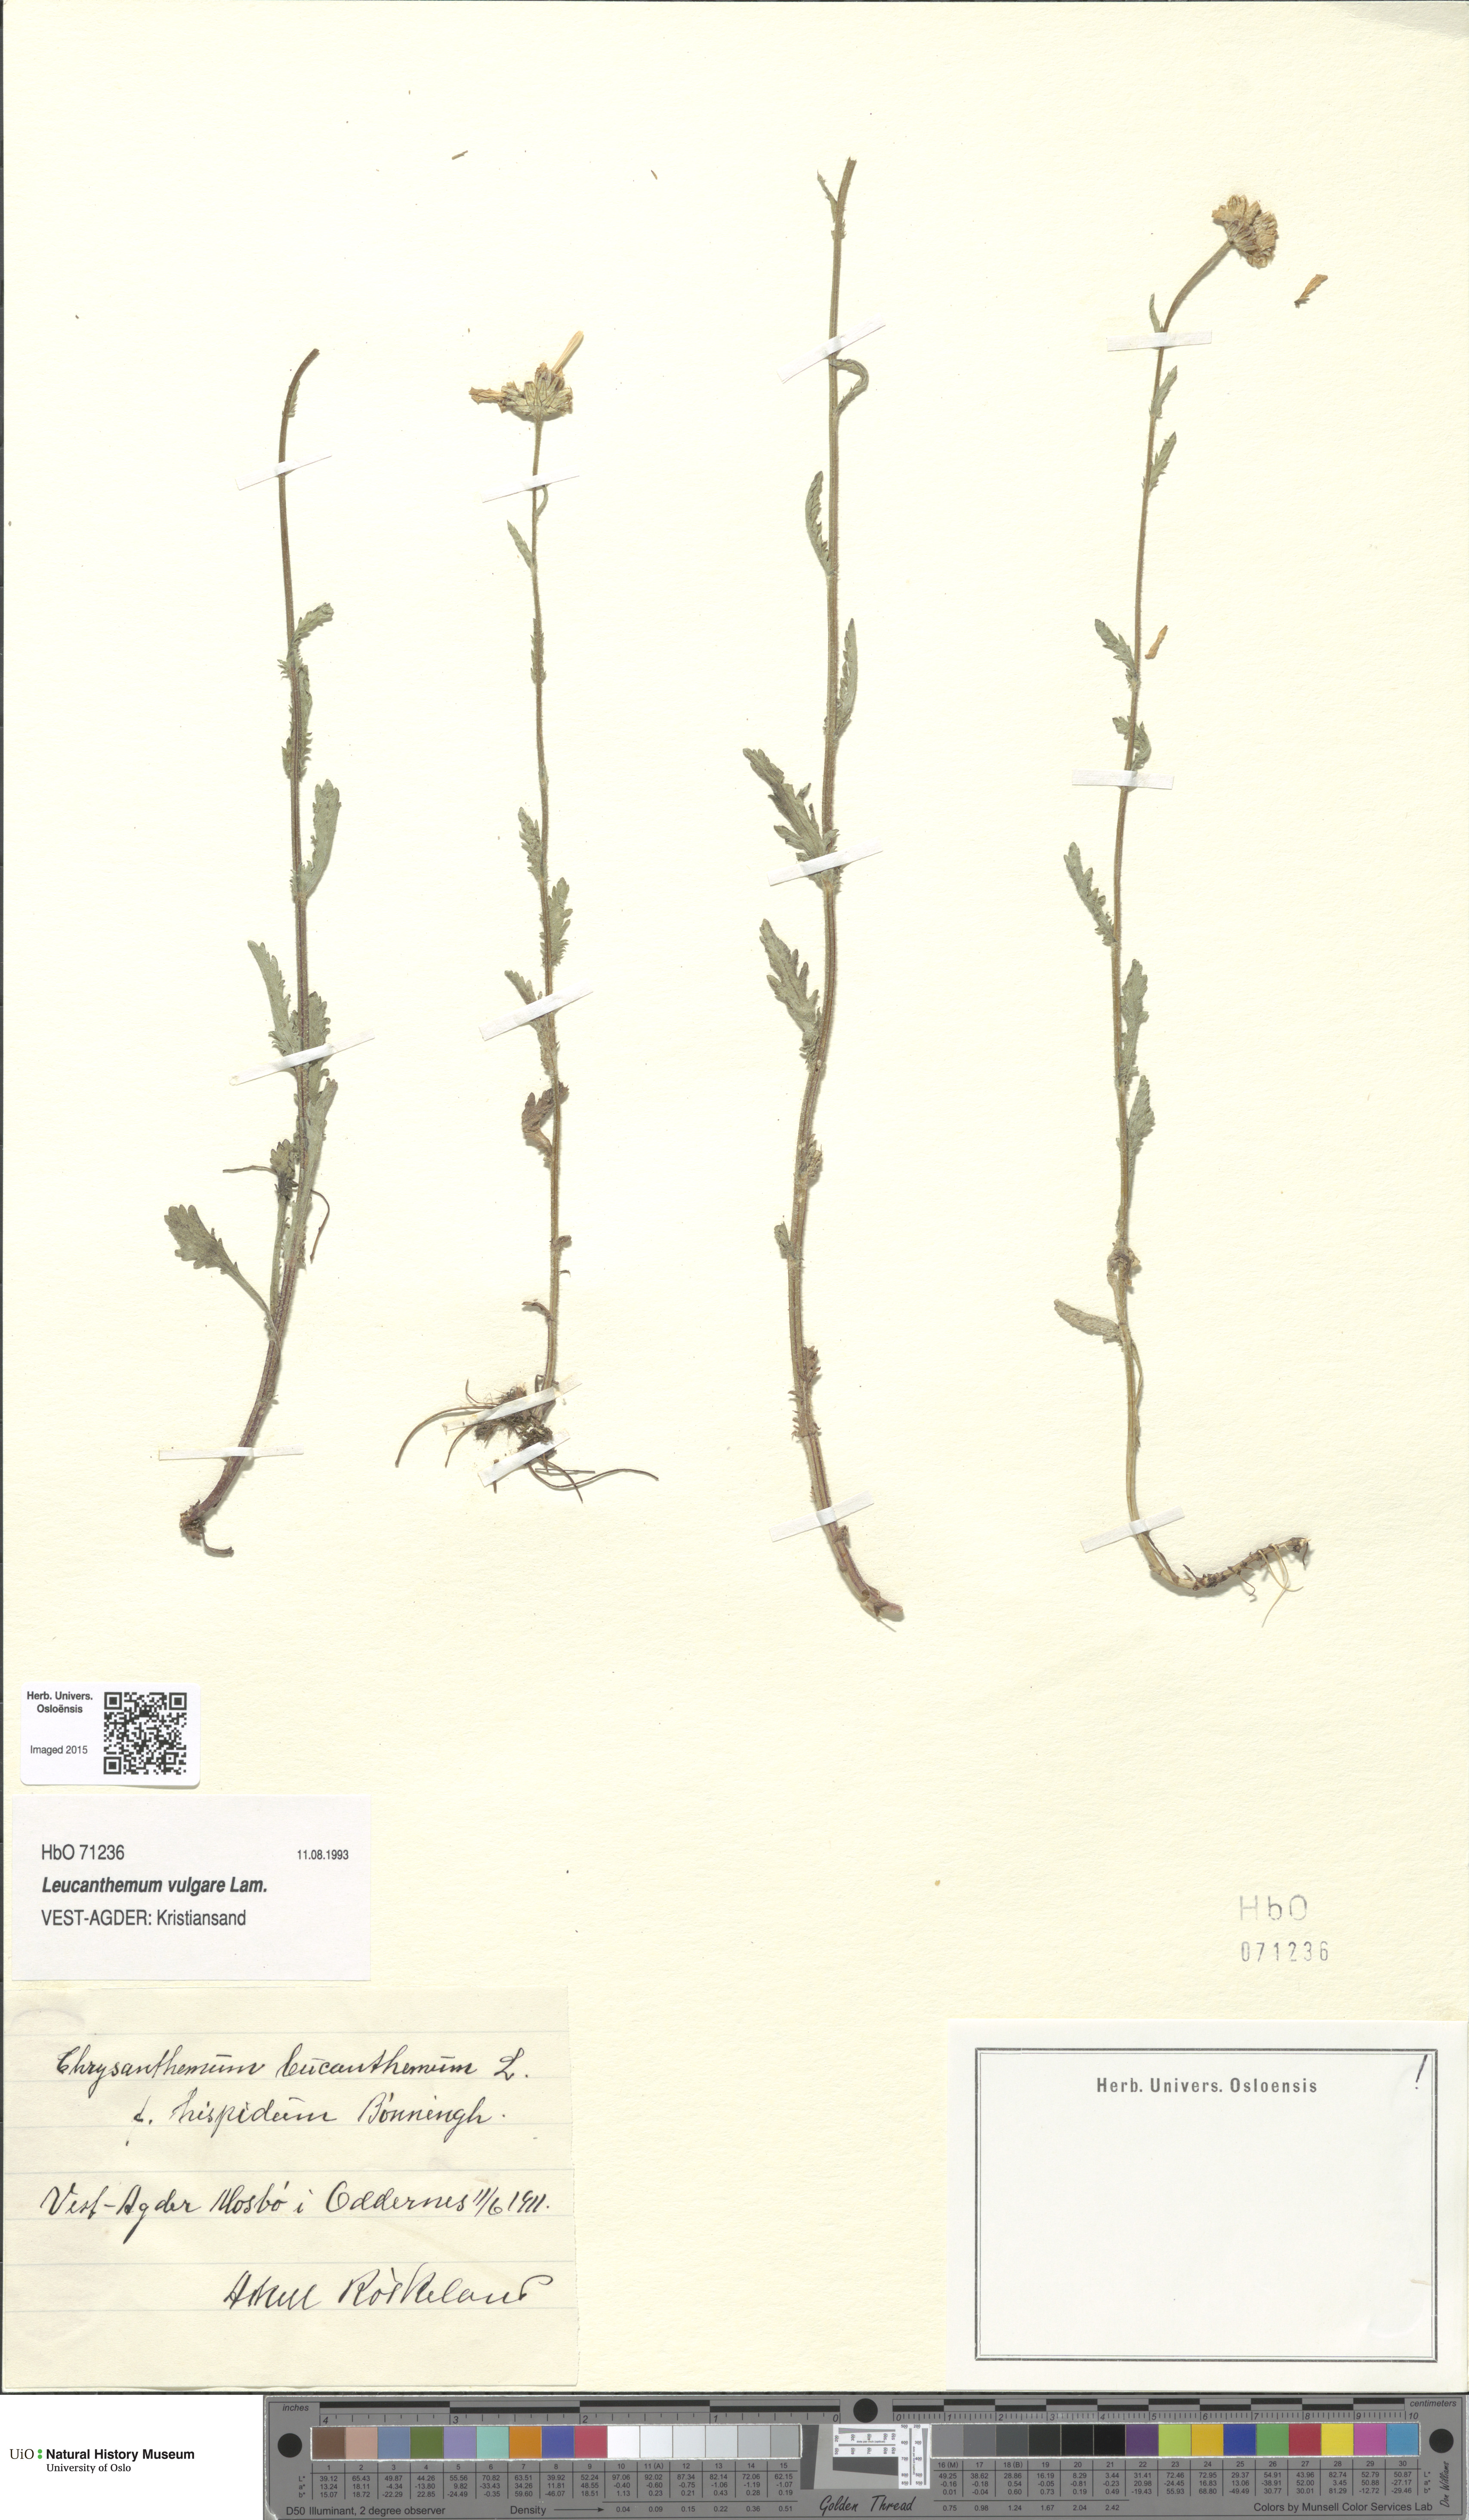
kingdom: Plantae
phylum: Tracheophyta
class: Magnoliopsida
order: Asterales
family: Asteraceae
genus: Leucanthemum
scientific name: Leucanthemum vulgare
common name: Oxeye daisy
